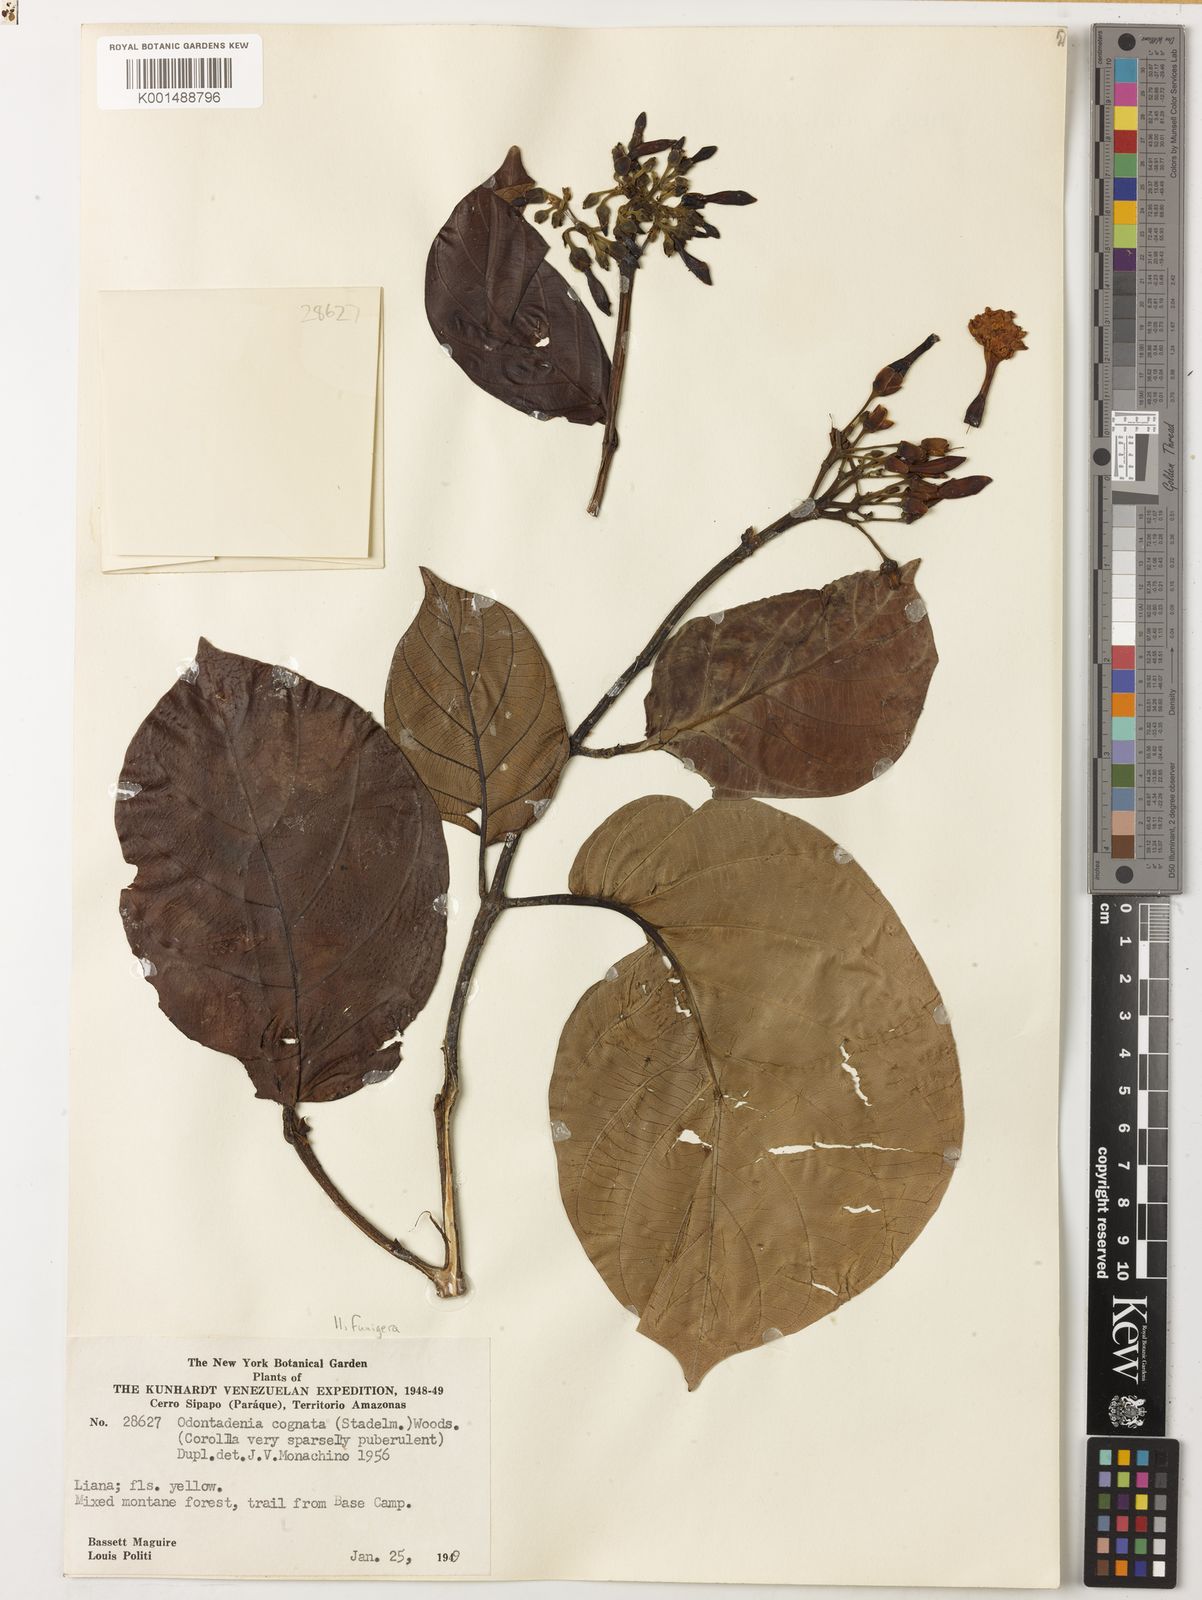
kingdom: Plantae
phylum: Tracheophyta
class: Magnoliopsida
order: Gentianales
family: Apocynaceae
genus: Odontadenia
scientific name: Odontadenia funigera
